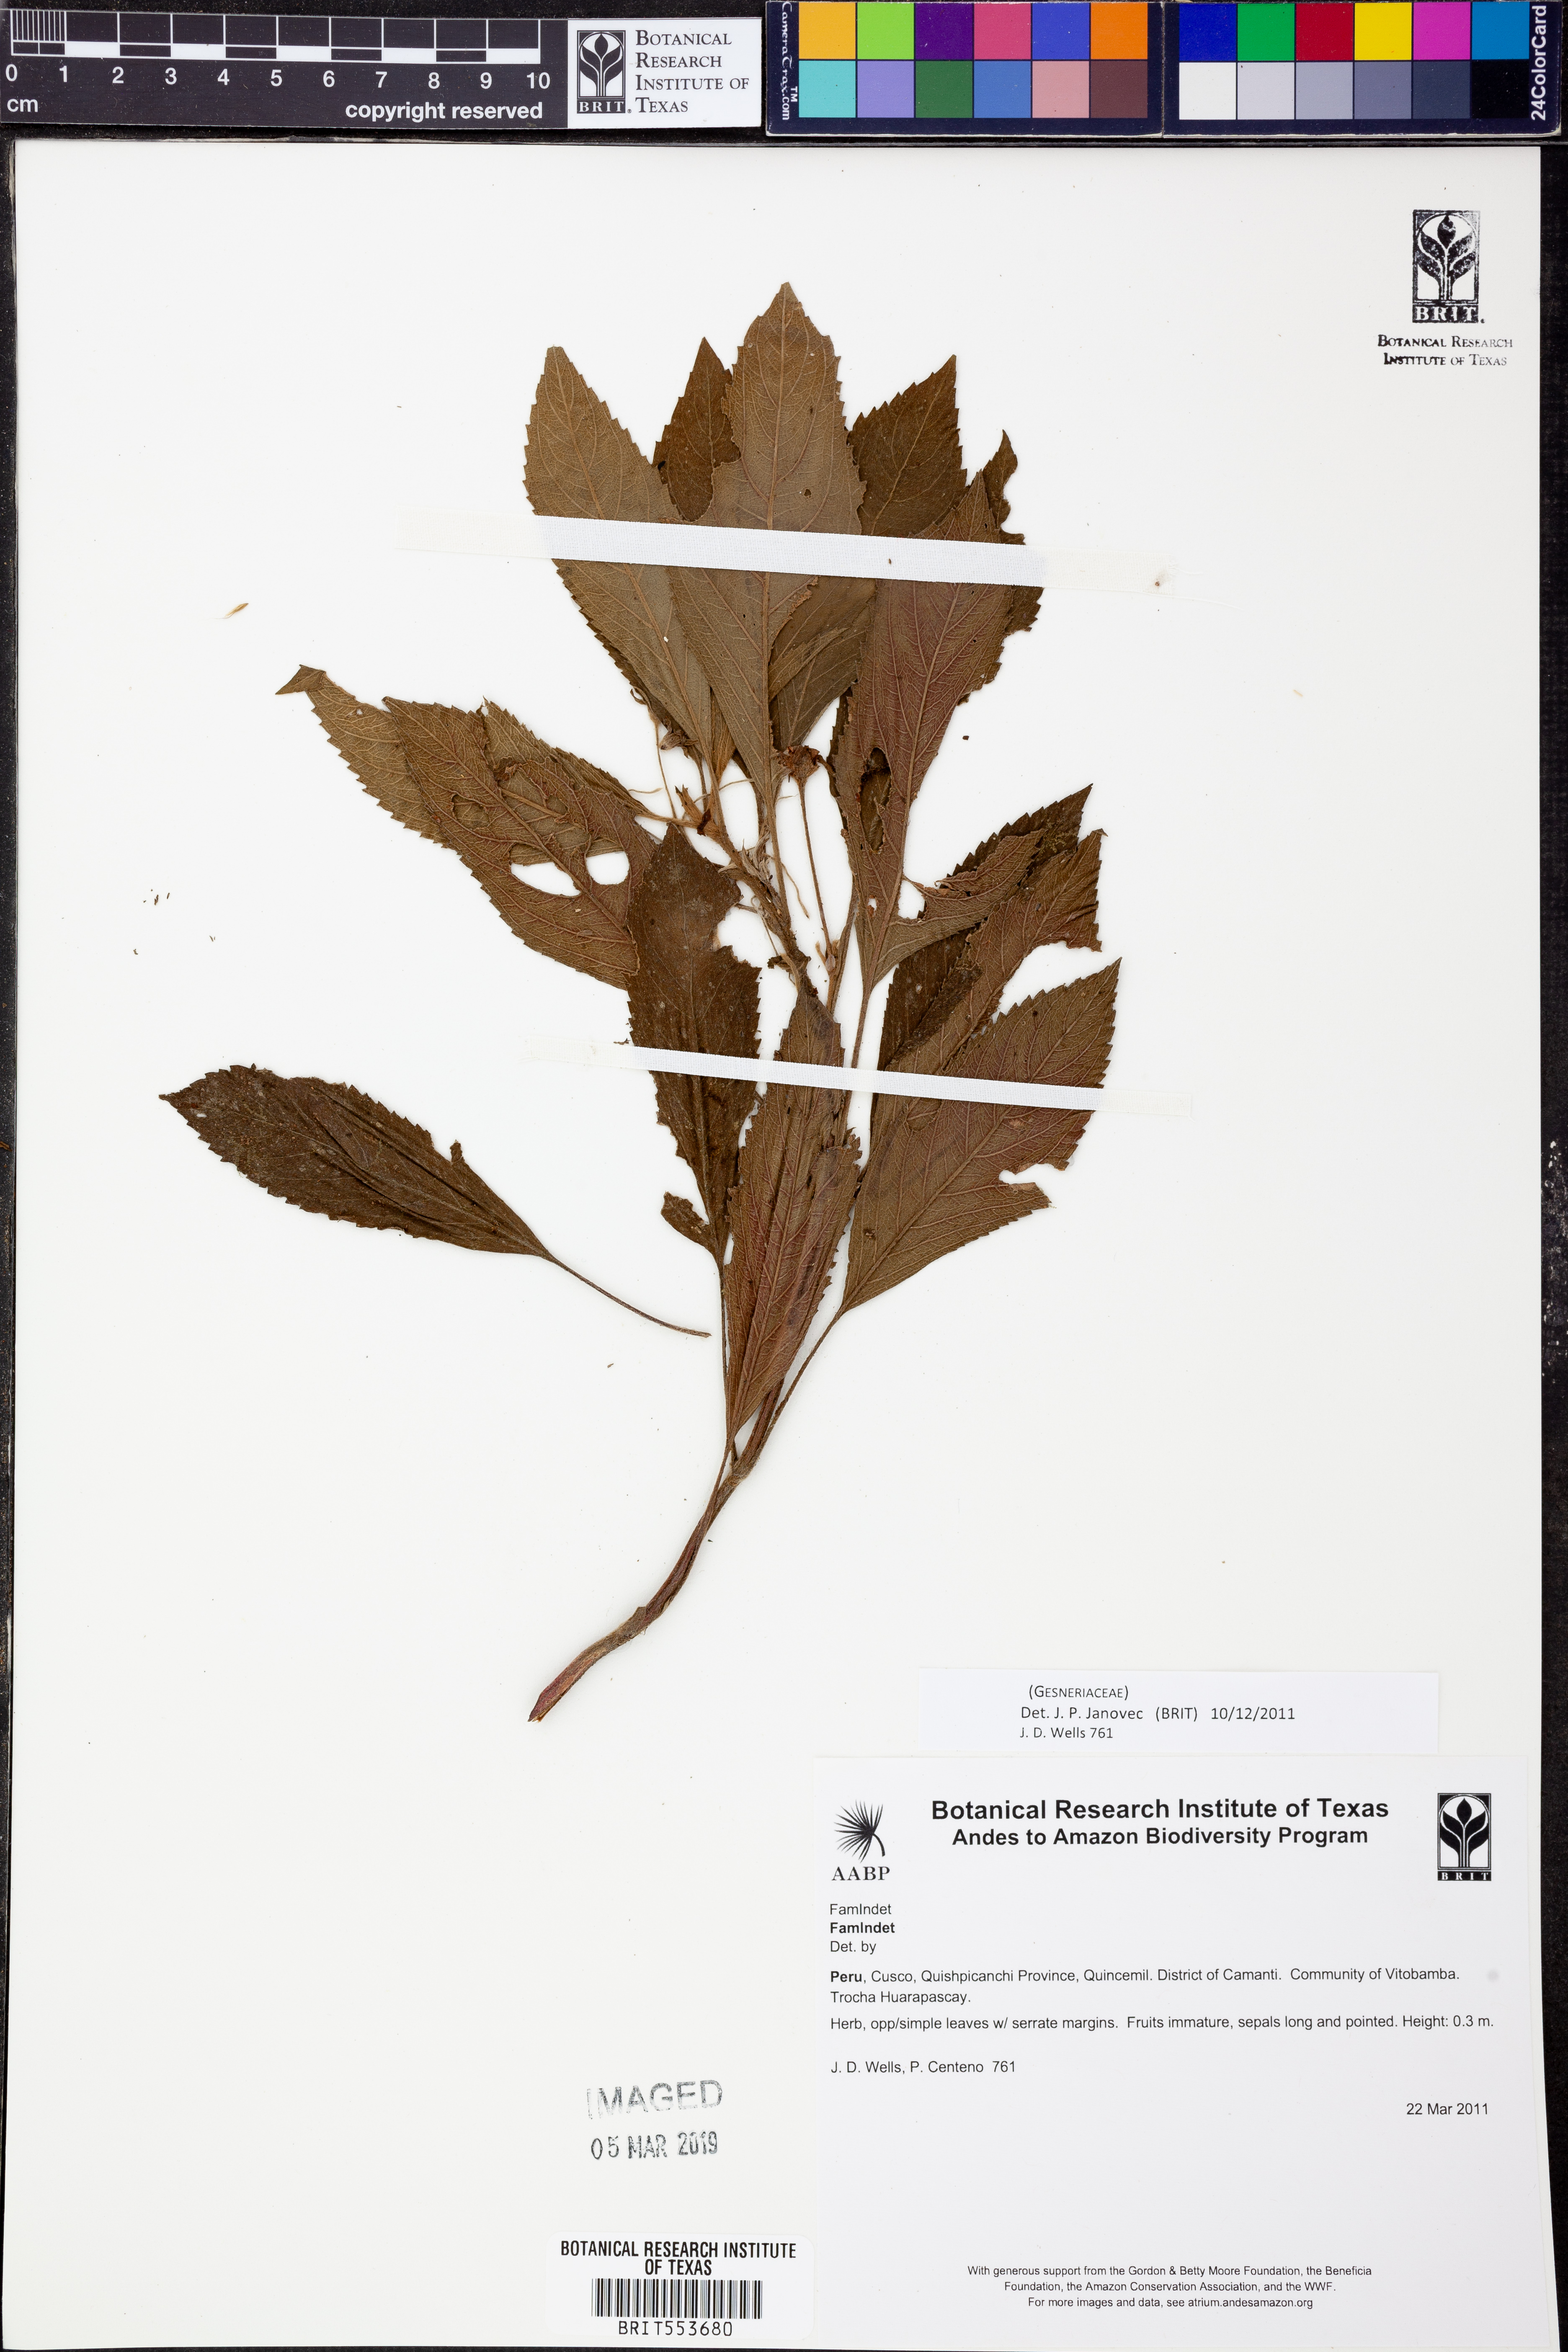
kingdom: Plantae
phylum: Tracheophyta
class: Magnoliopsida
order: Lamiales
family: Gesneriaceae
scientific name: Gesneriaceae
